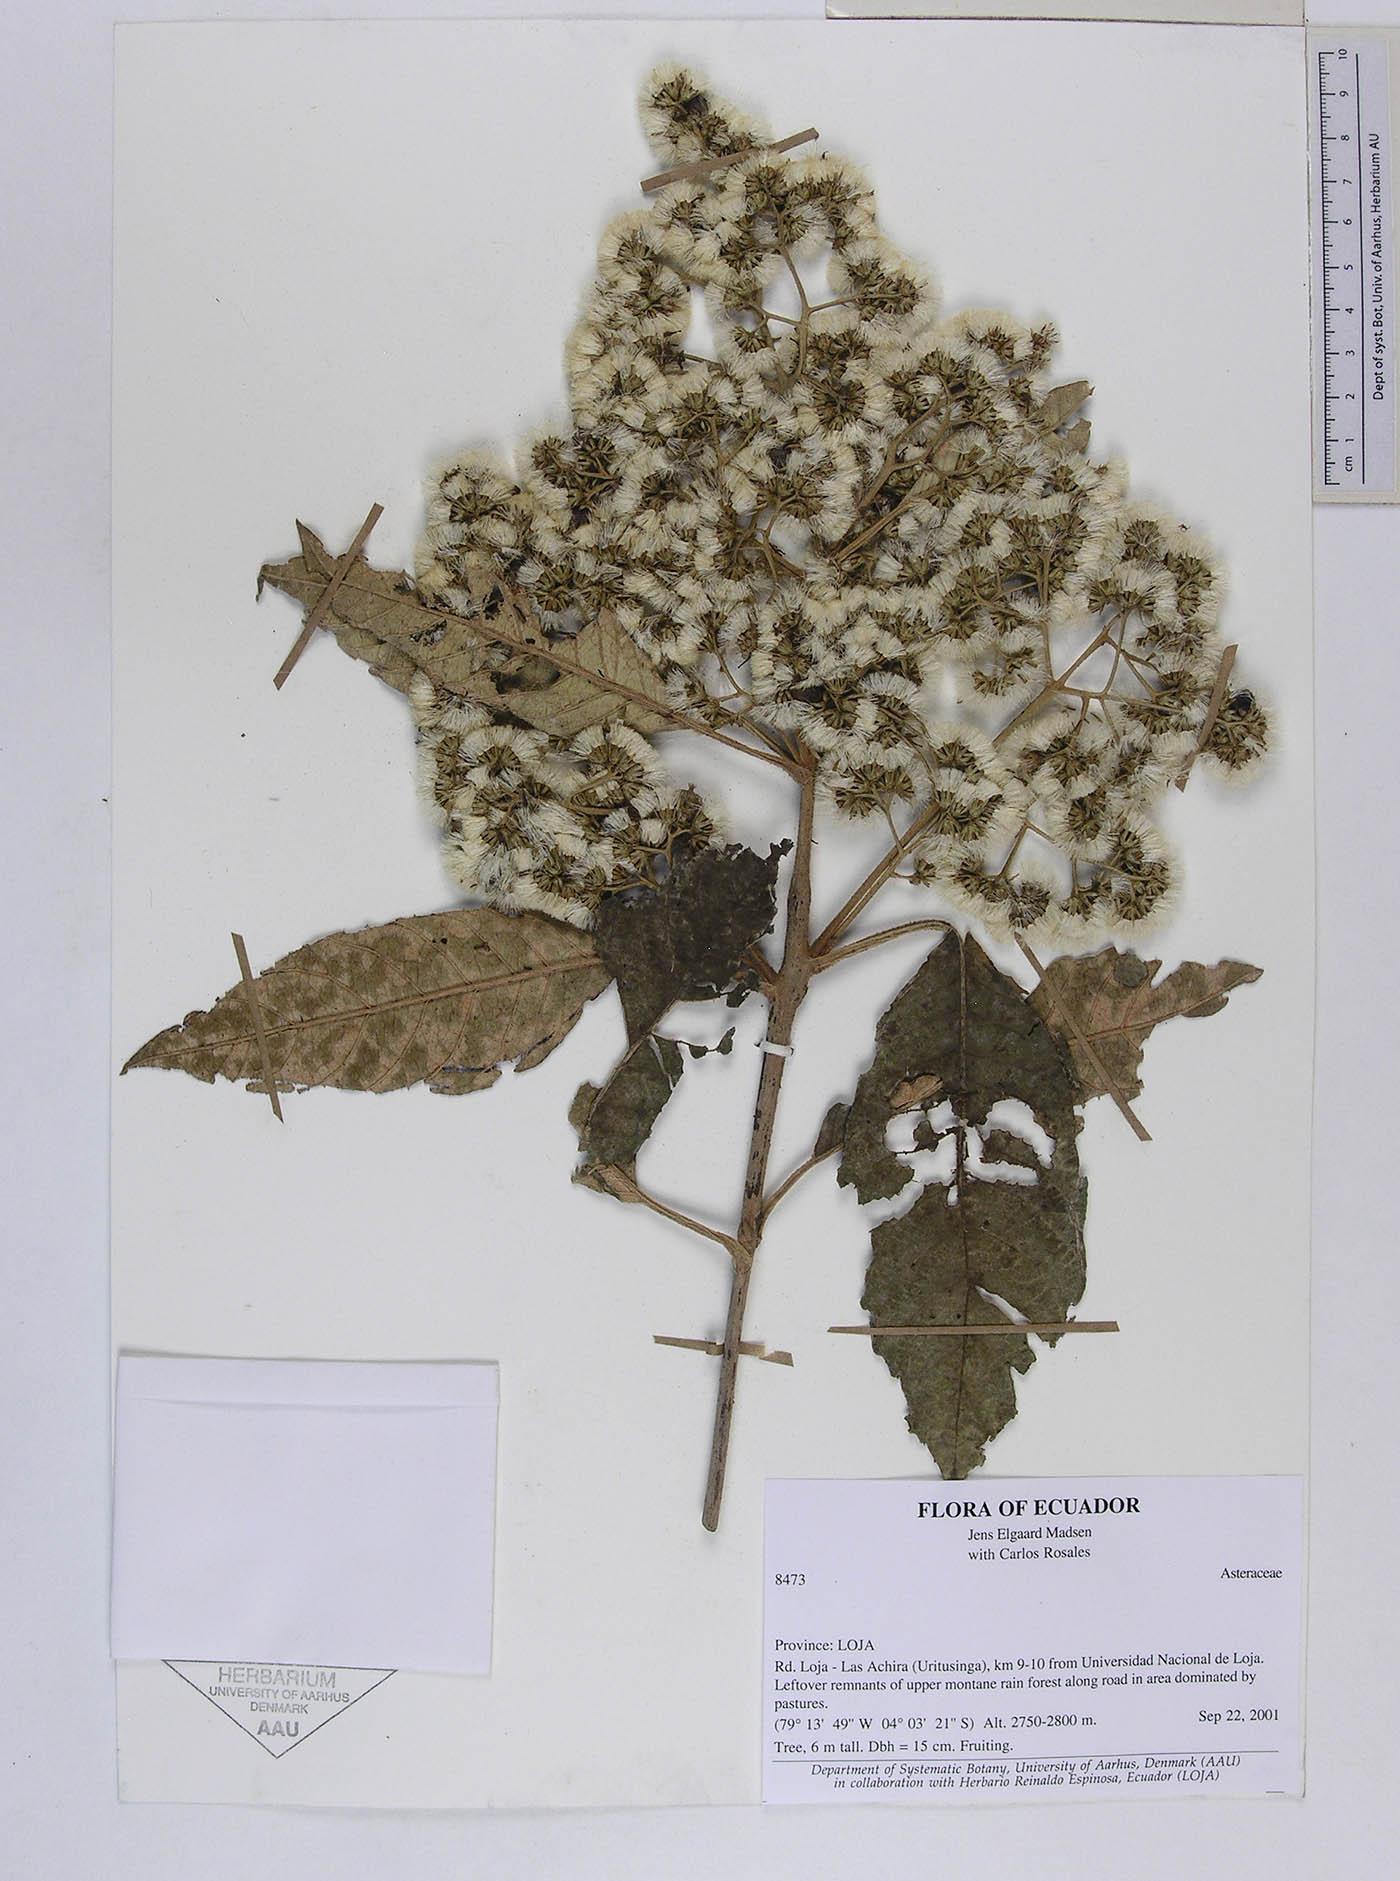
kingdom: Plantae
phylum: Tracheophyta
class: Magnoliopsida
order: Asterales
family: Asteraceae
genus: Critoniopsis
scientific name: Critoniopsis persetosa
